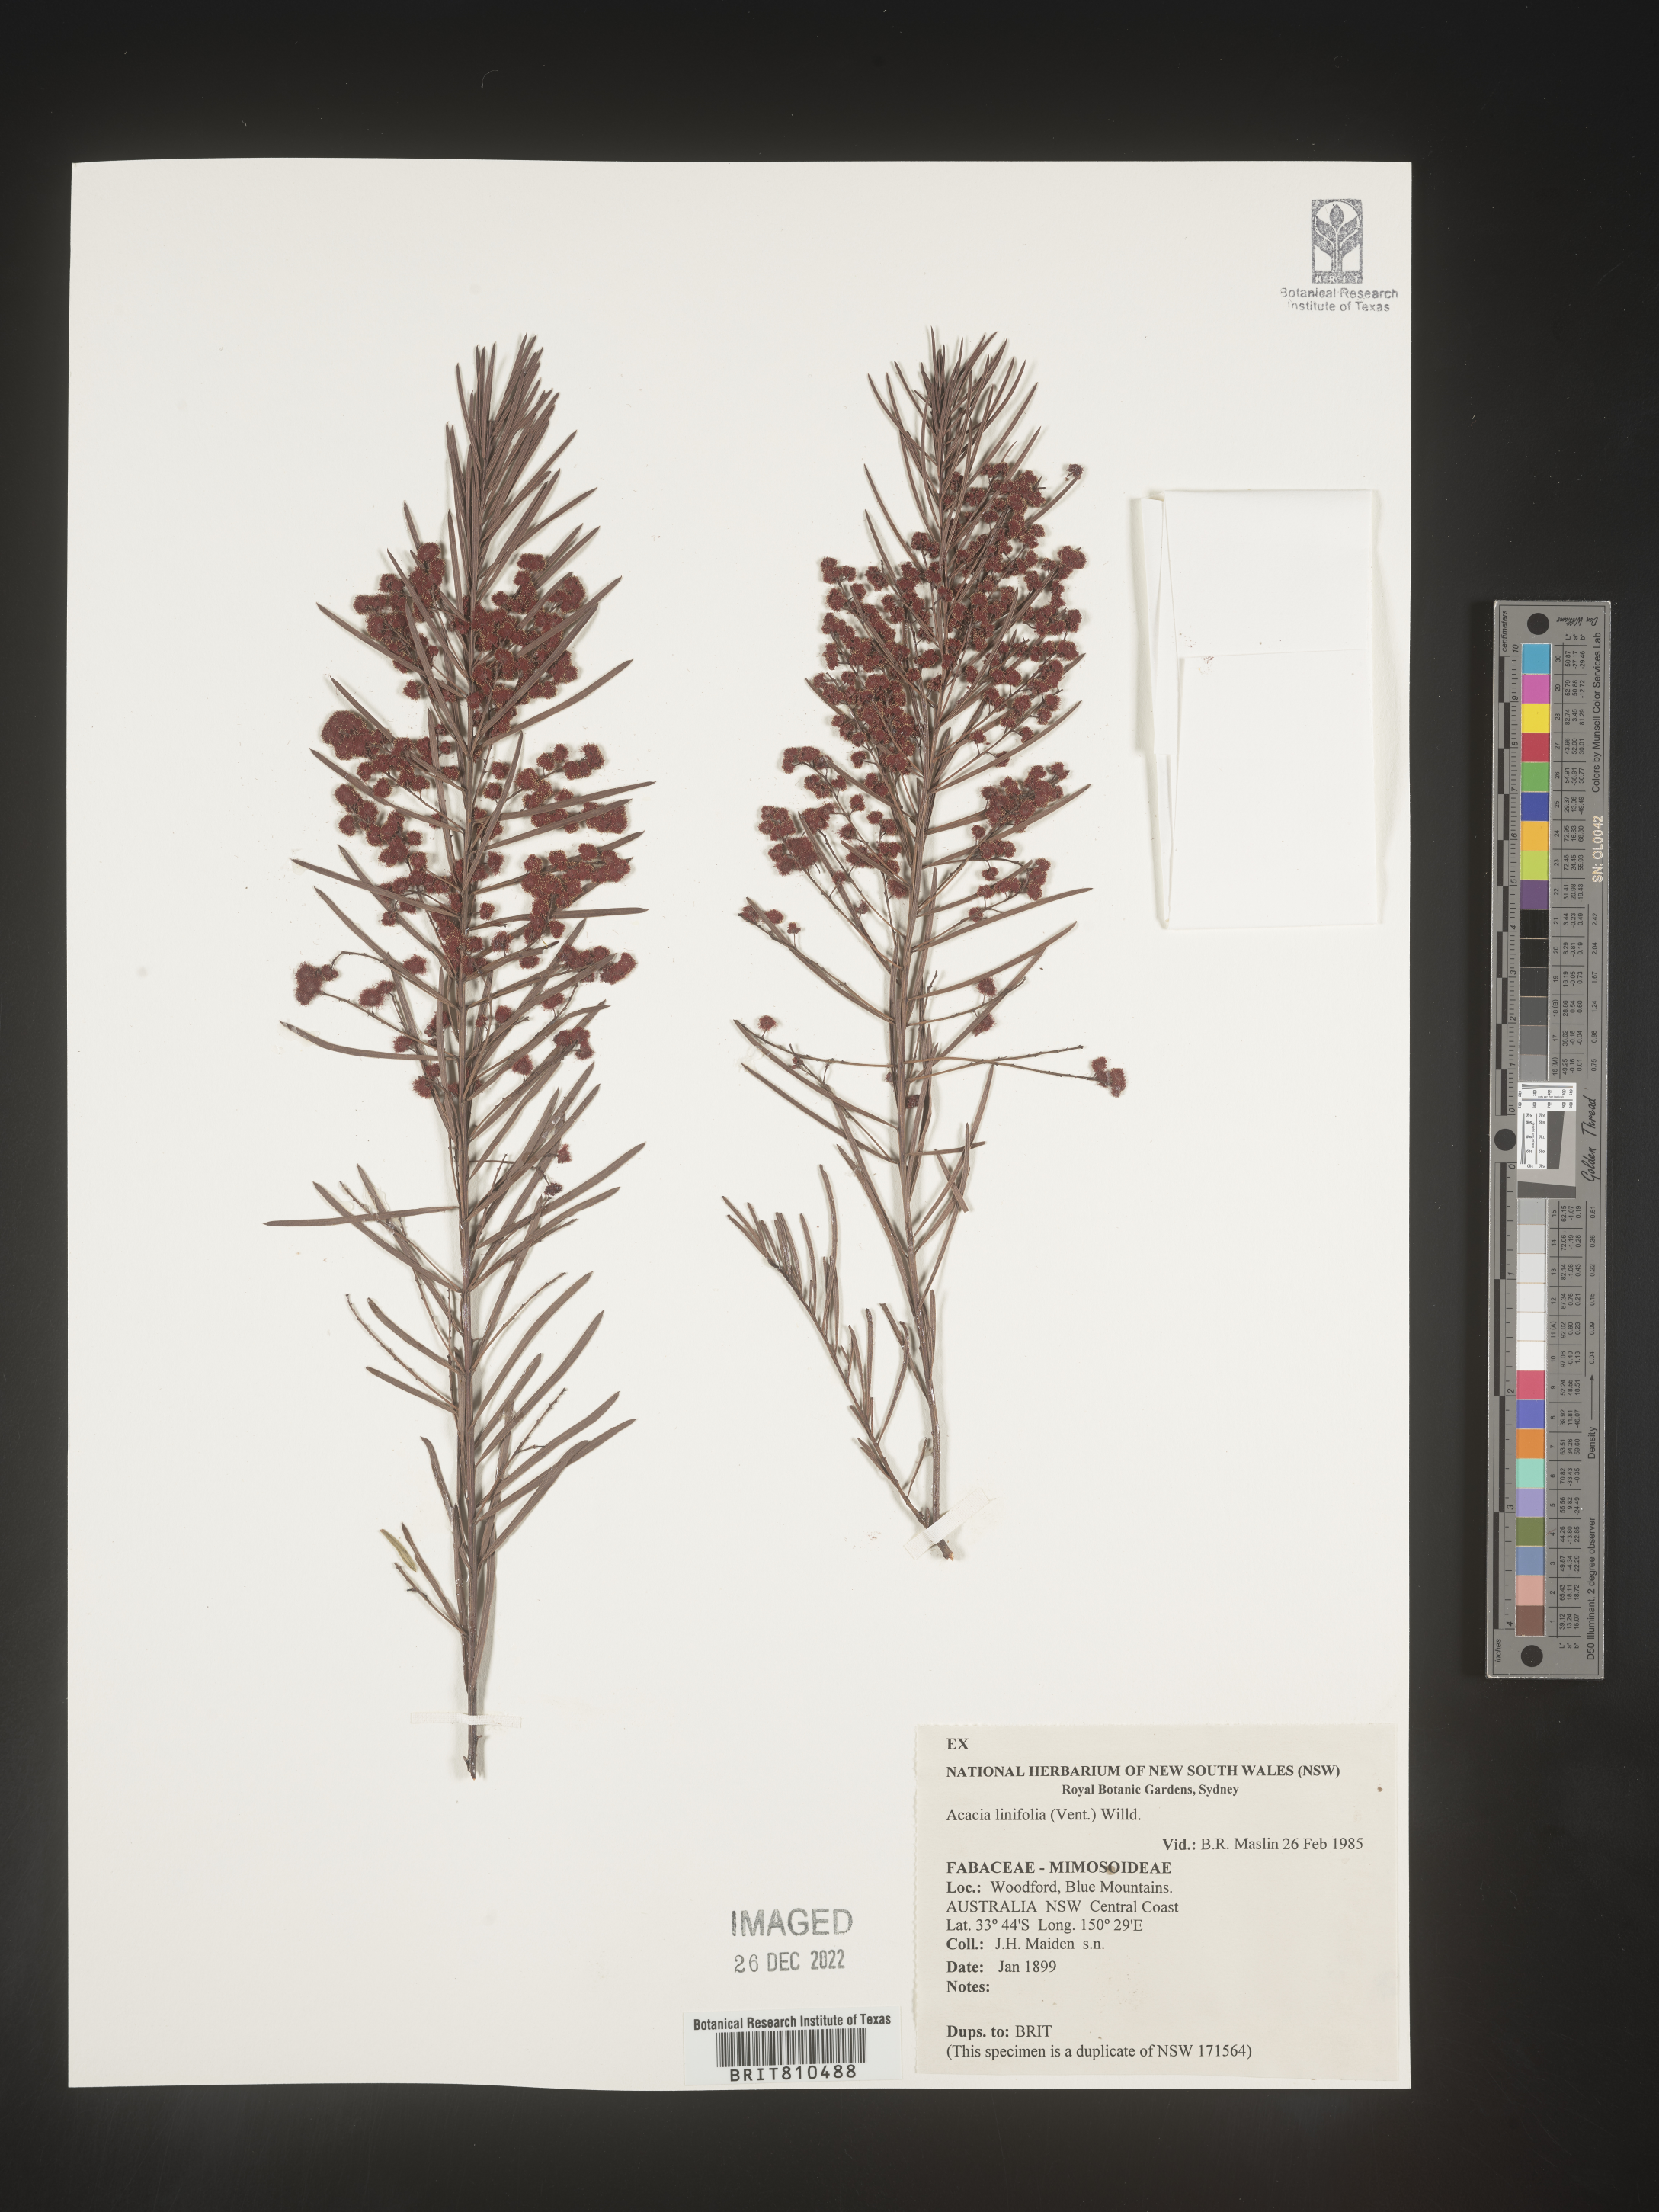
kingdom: Plantae
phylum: Tracheophyta
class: Magnoliopsida
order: Fabales
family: Fabaceae
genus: Acacia
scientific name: Acacia
